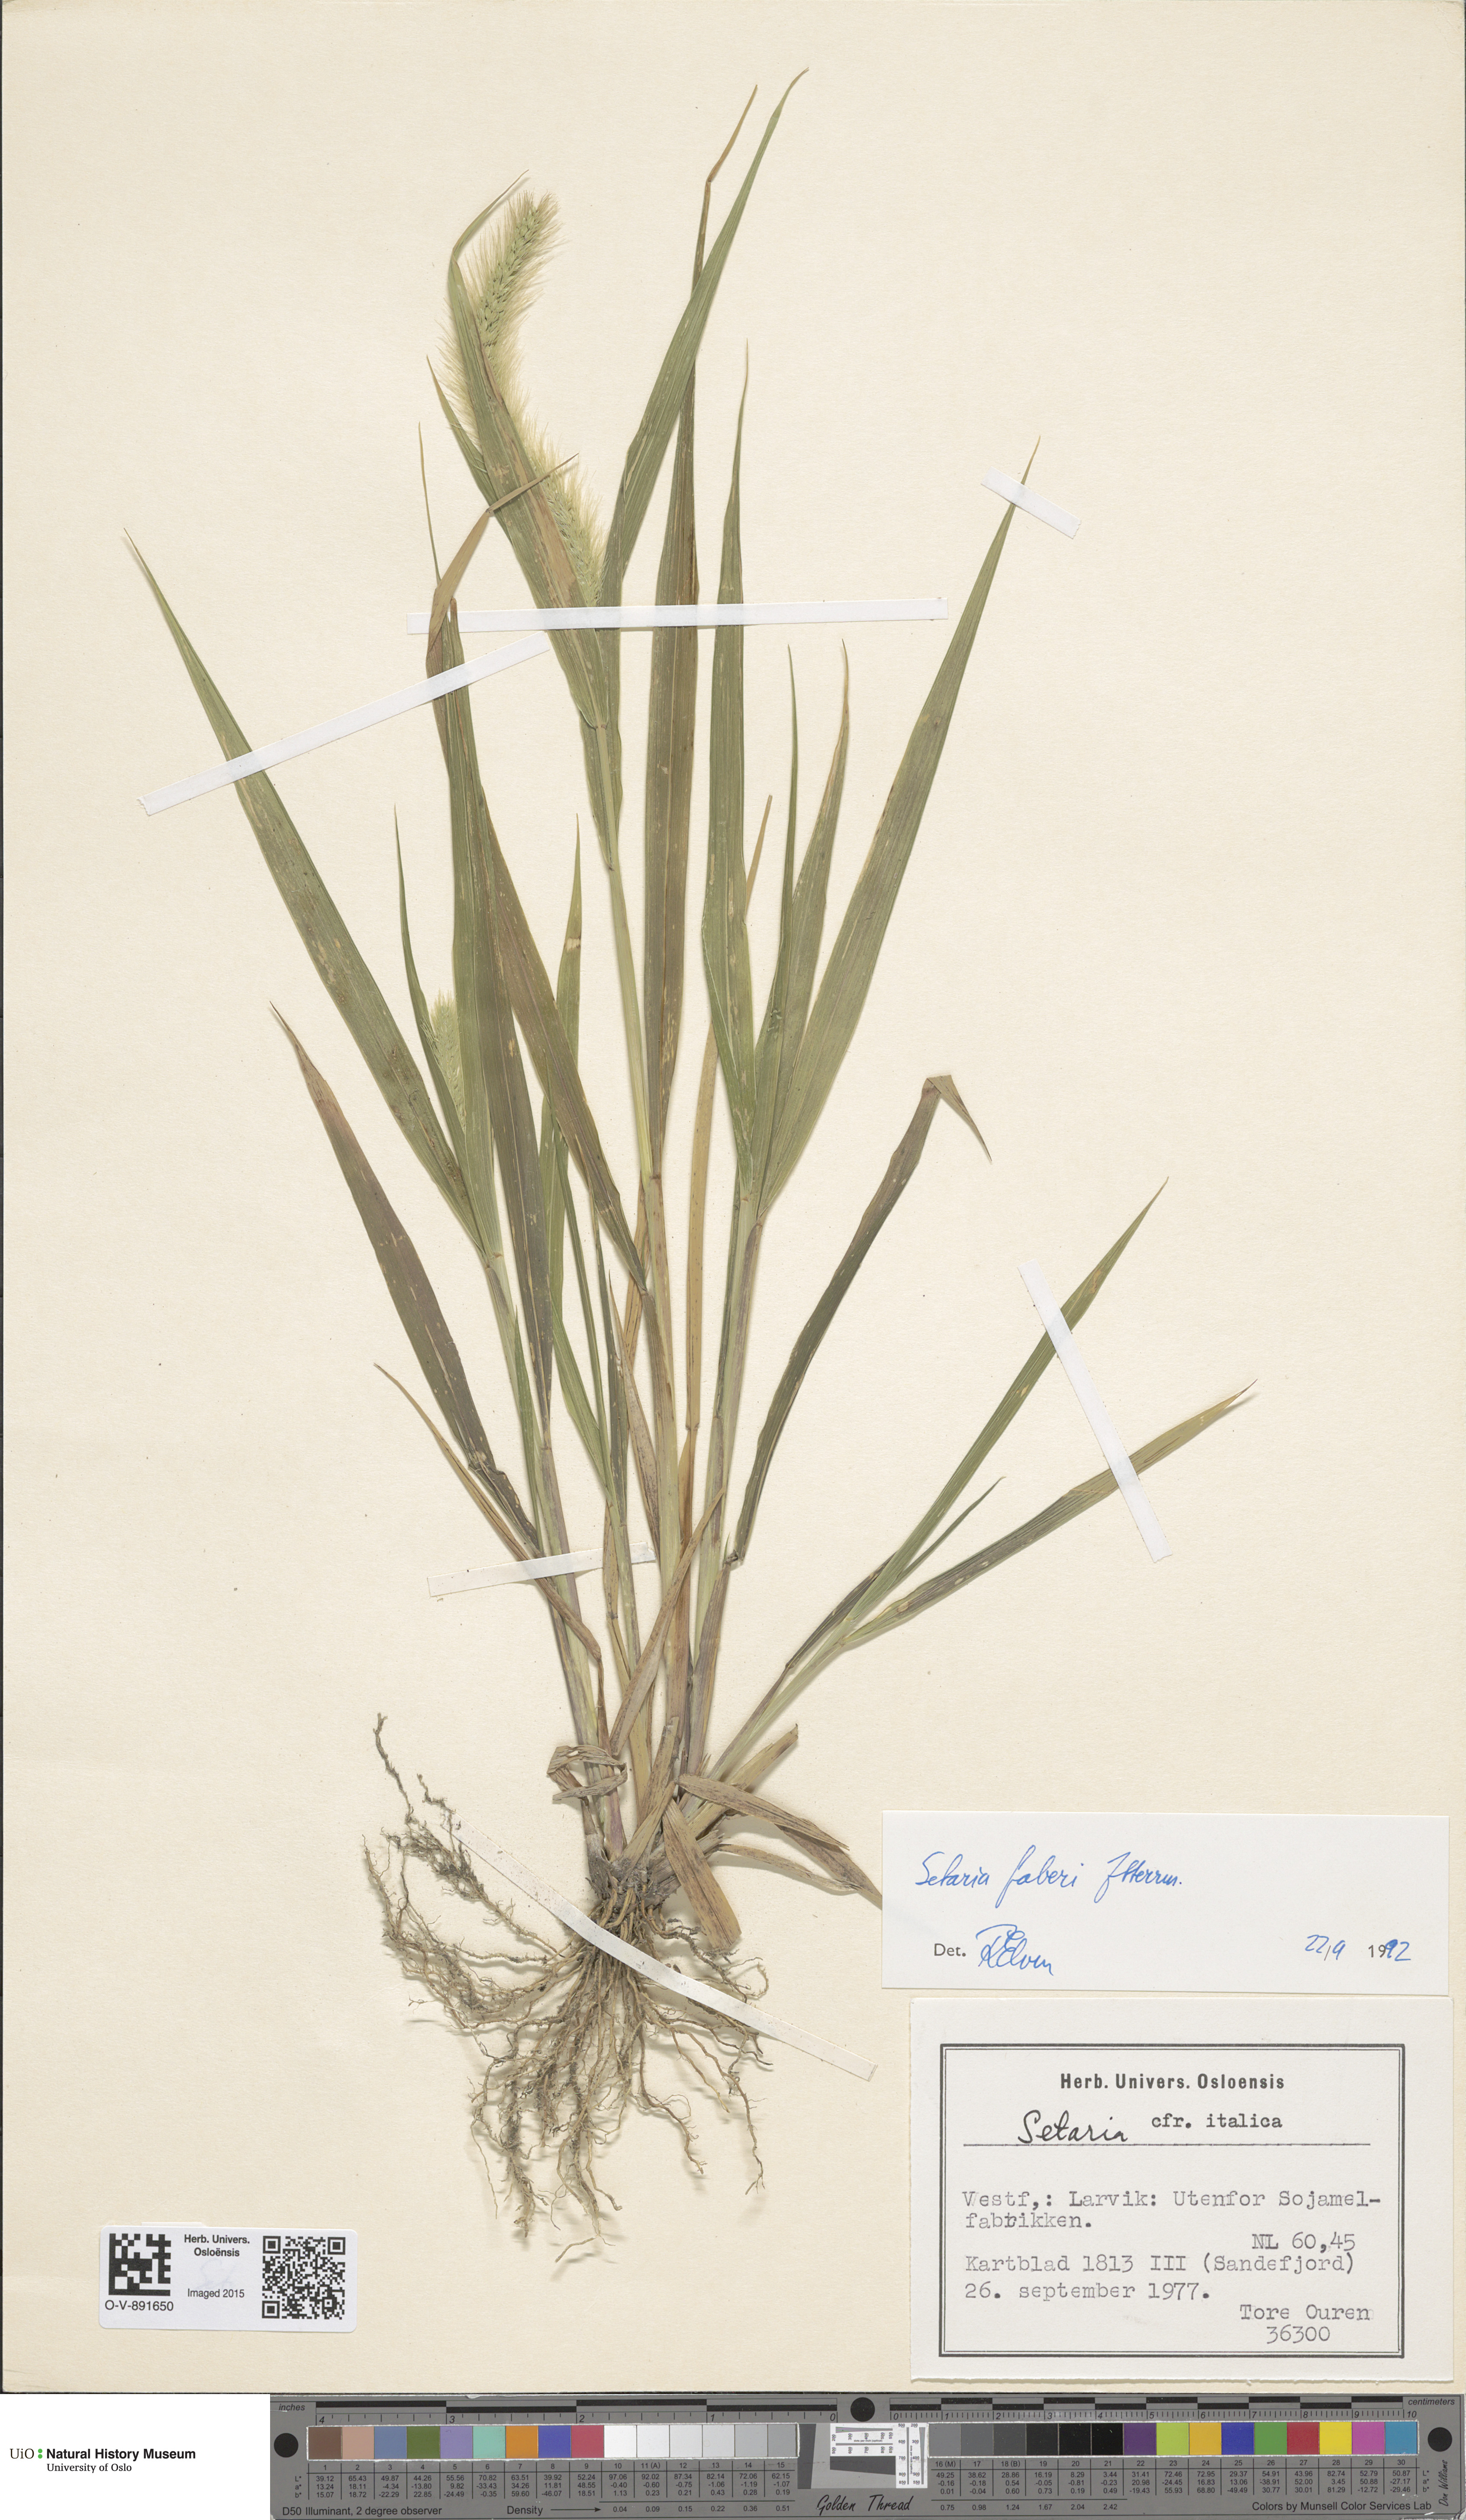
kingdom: Plantae
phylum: Tracheophyta
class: Liliopsida
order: Poales
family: Poaceae
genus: Setaria
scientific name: Setaria faberi
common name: Nodding bristle-grass
